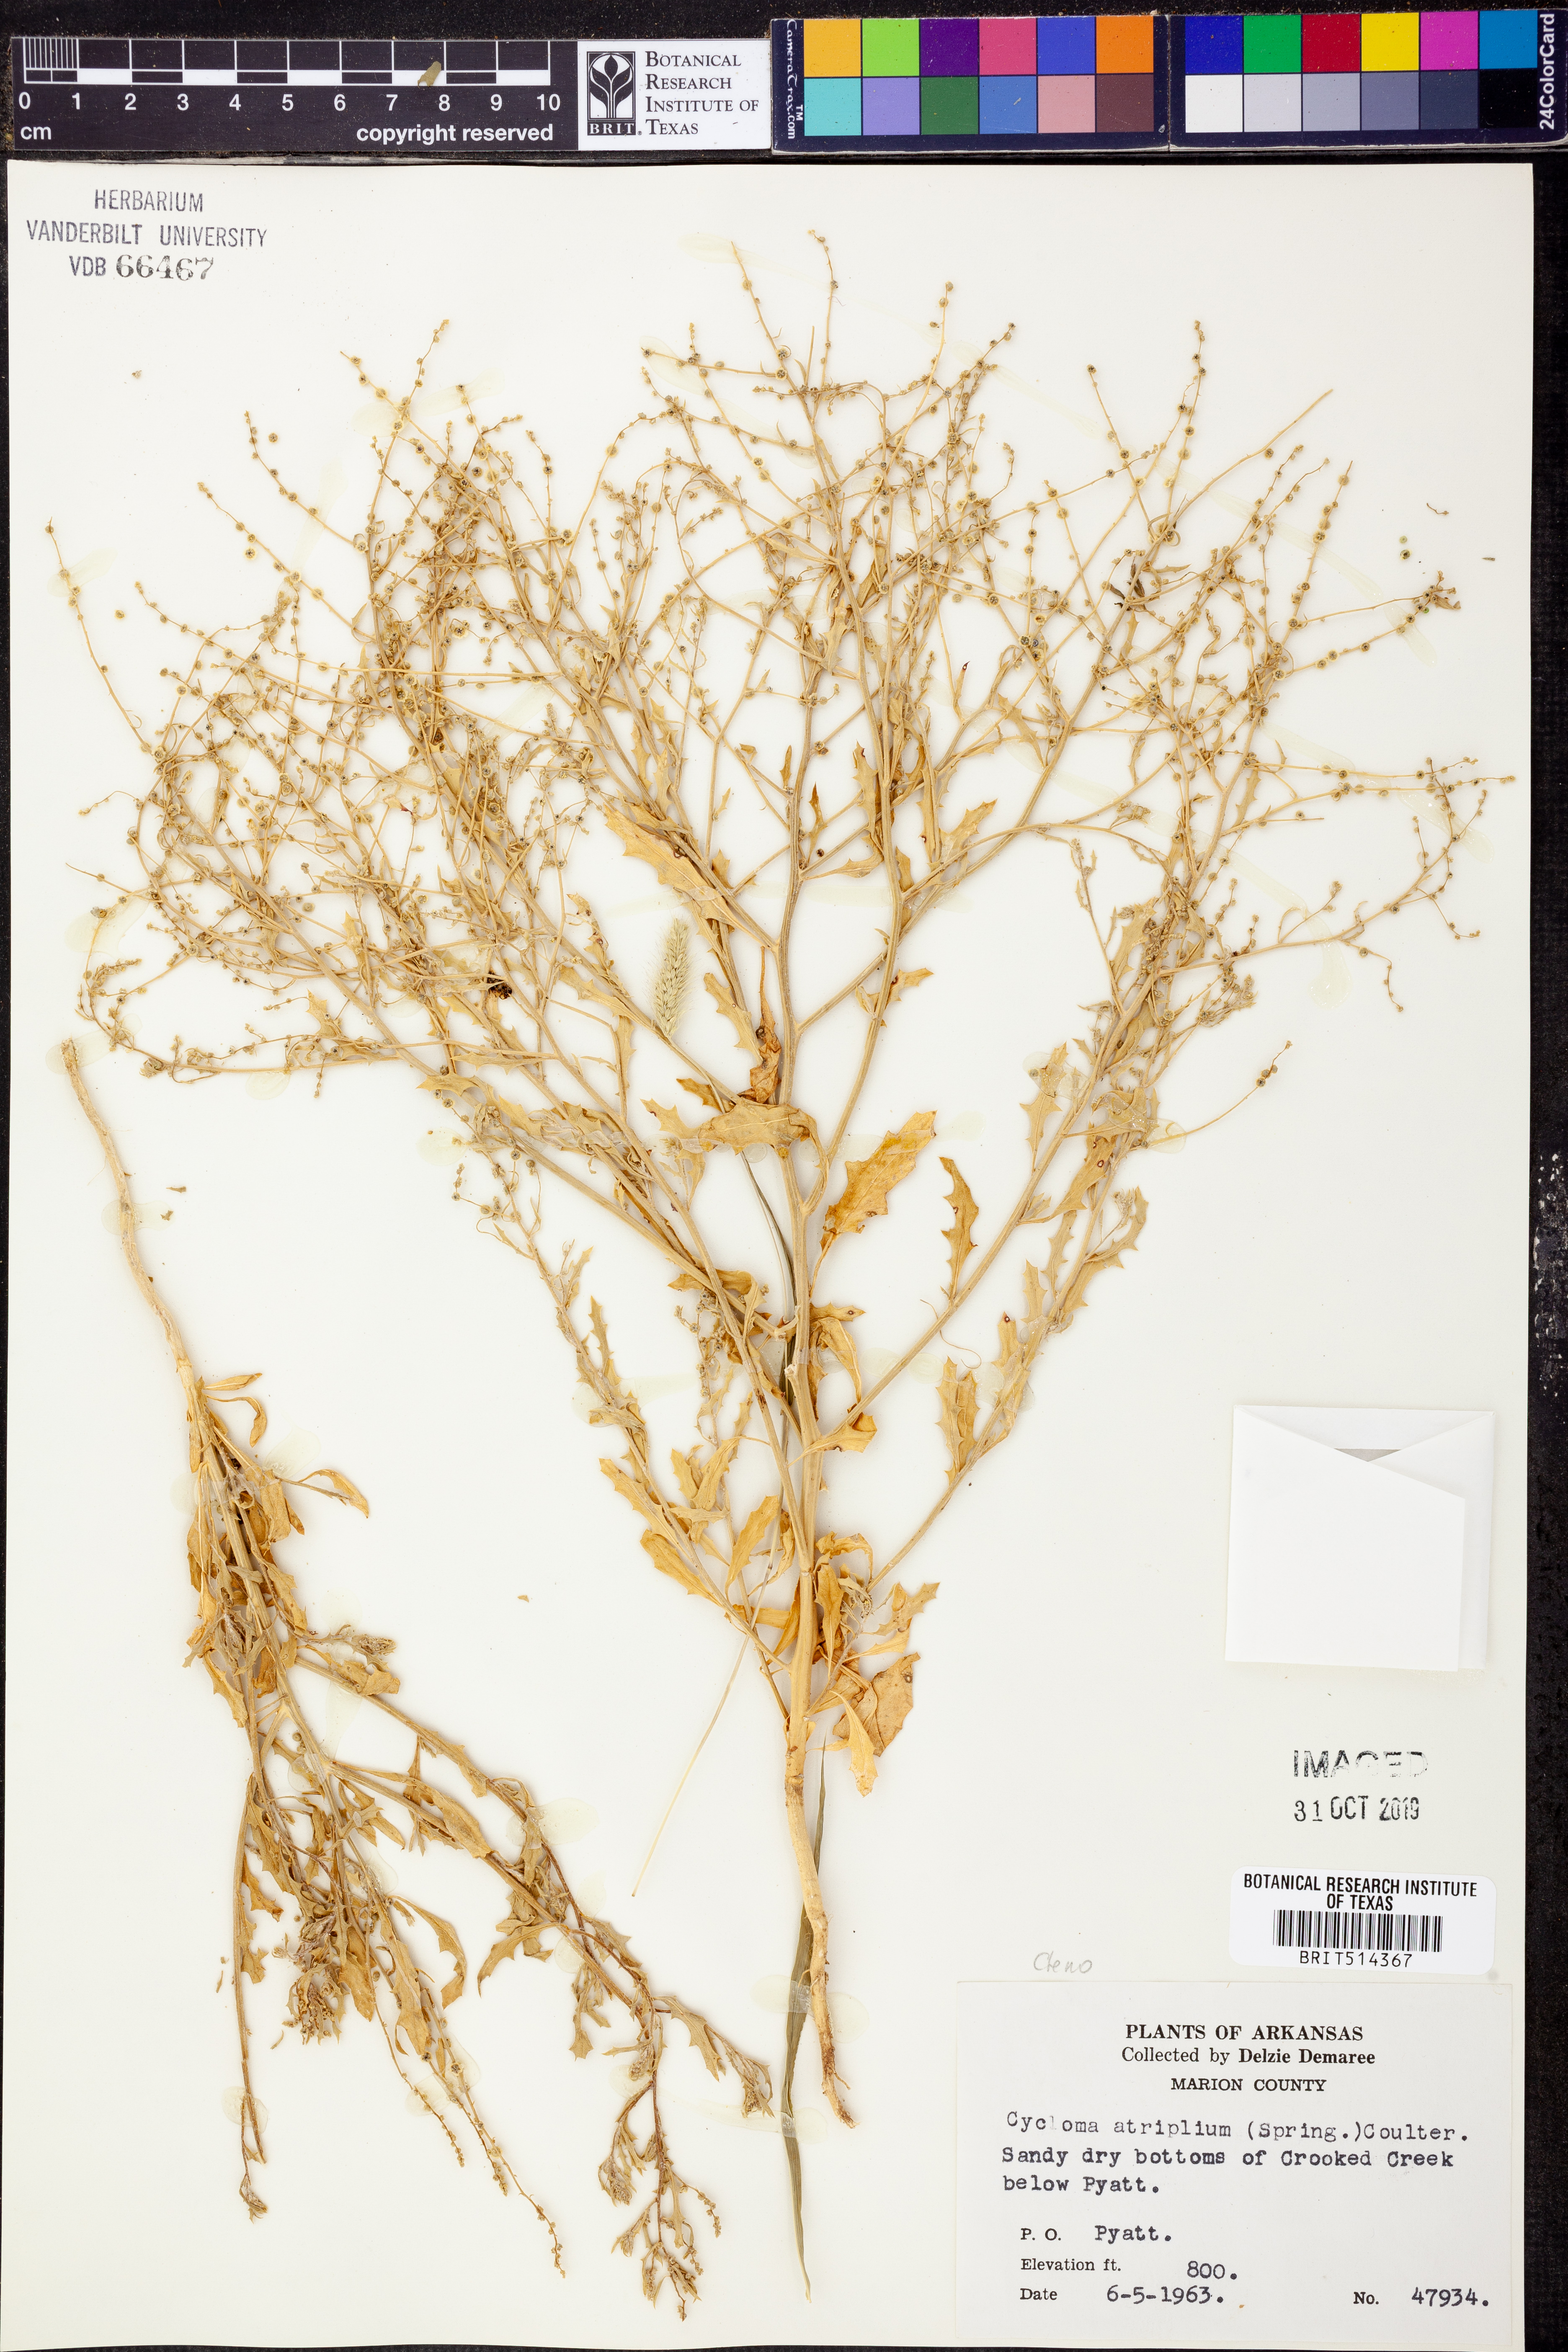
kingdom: Plantae
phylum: Tracheophyta
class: Magnoliopsida
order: Caryophyllales
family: Amaranthaceae
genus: Dysphania
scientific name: Dysphania atriplicifolia
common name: Plains tumbleweed
